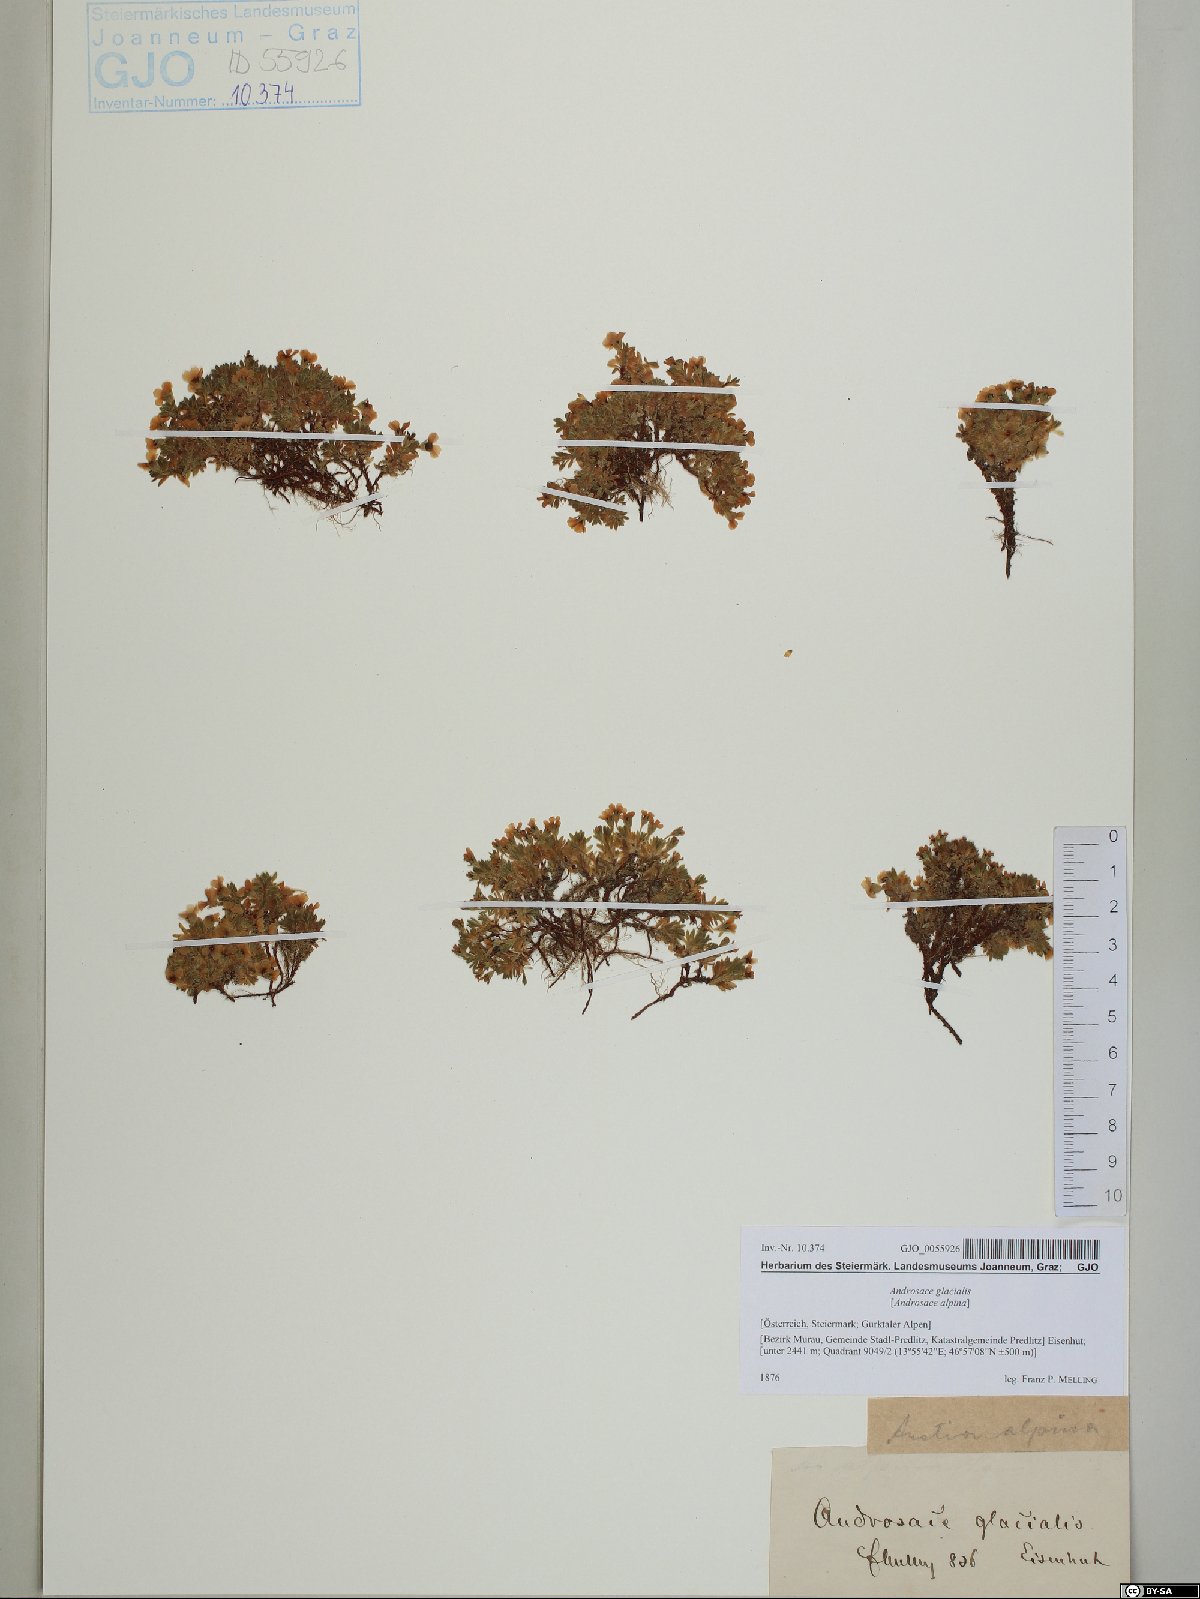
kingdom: Plantae
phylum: Tracheophyta
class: Magnoliopsida
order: Ericales
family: Primulaceae
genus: Androsace
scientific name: Androsace alpina
